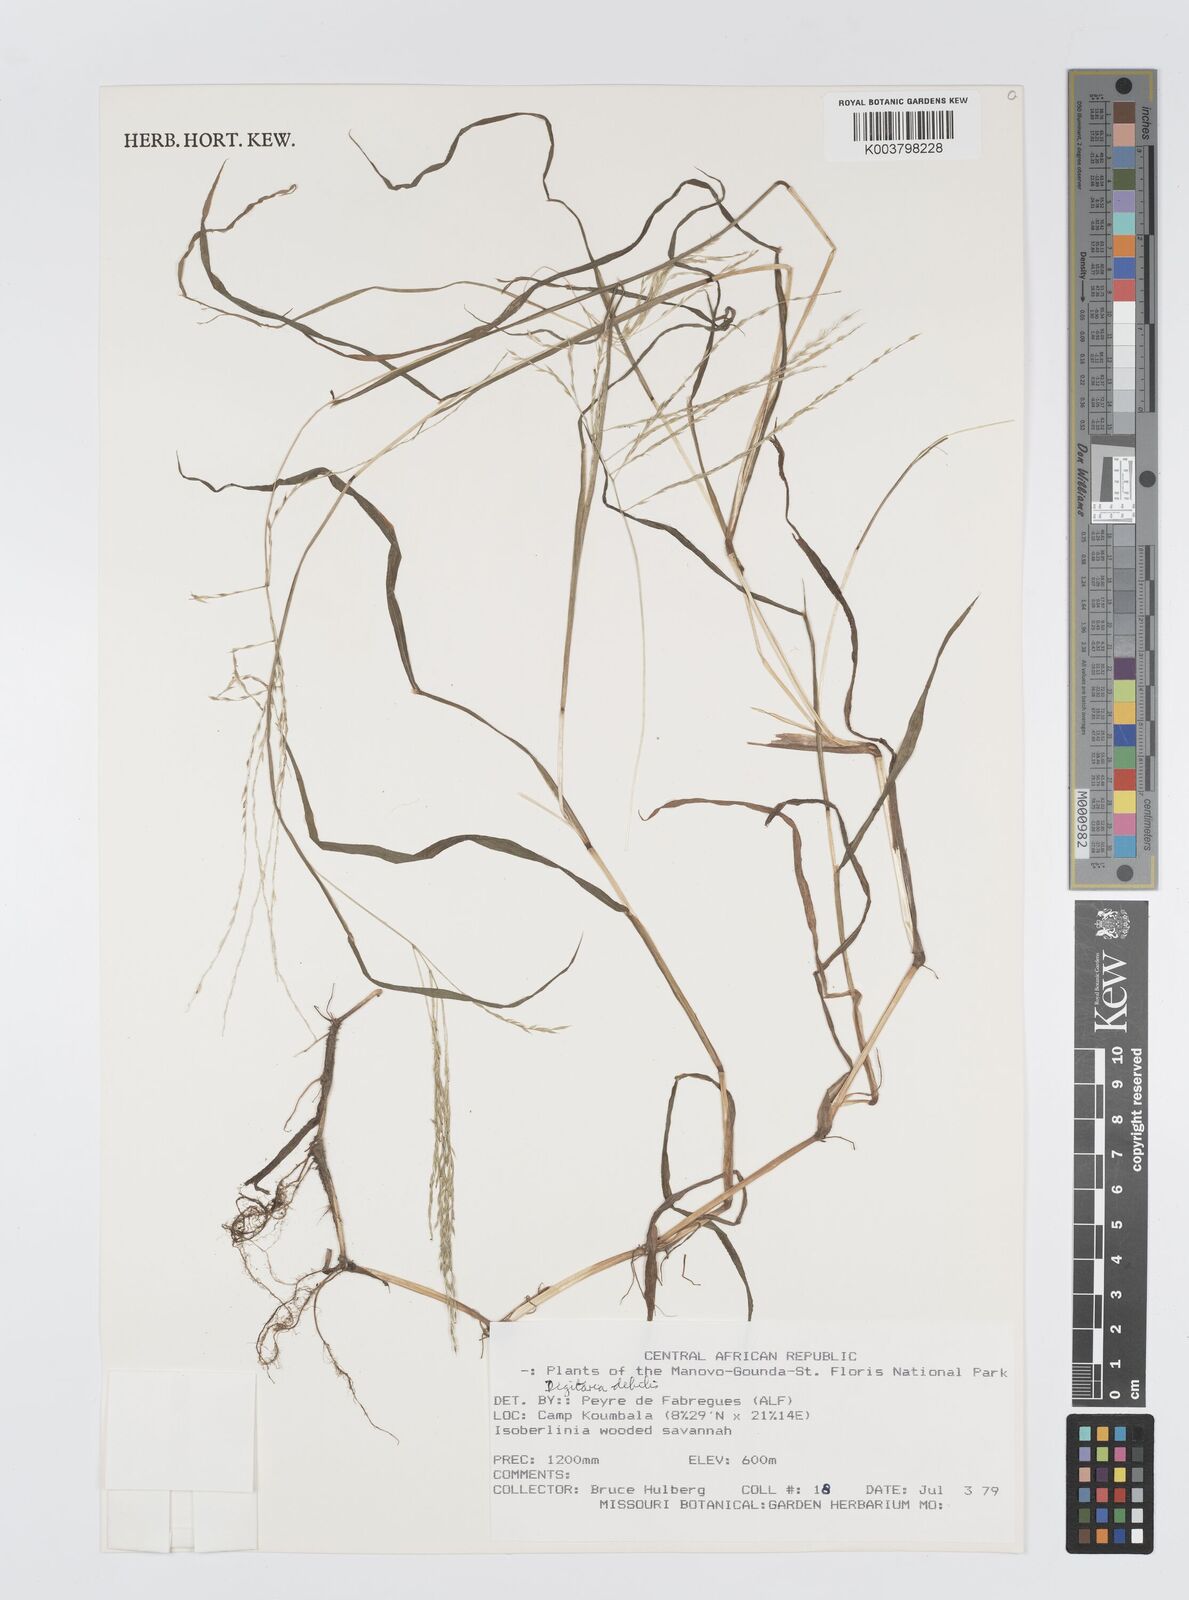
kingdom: Plantae
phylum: Tracheophyta
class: Liliopsida
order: Poales
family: Poaceae
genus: Digitaria
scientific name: Digitaria debilis
